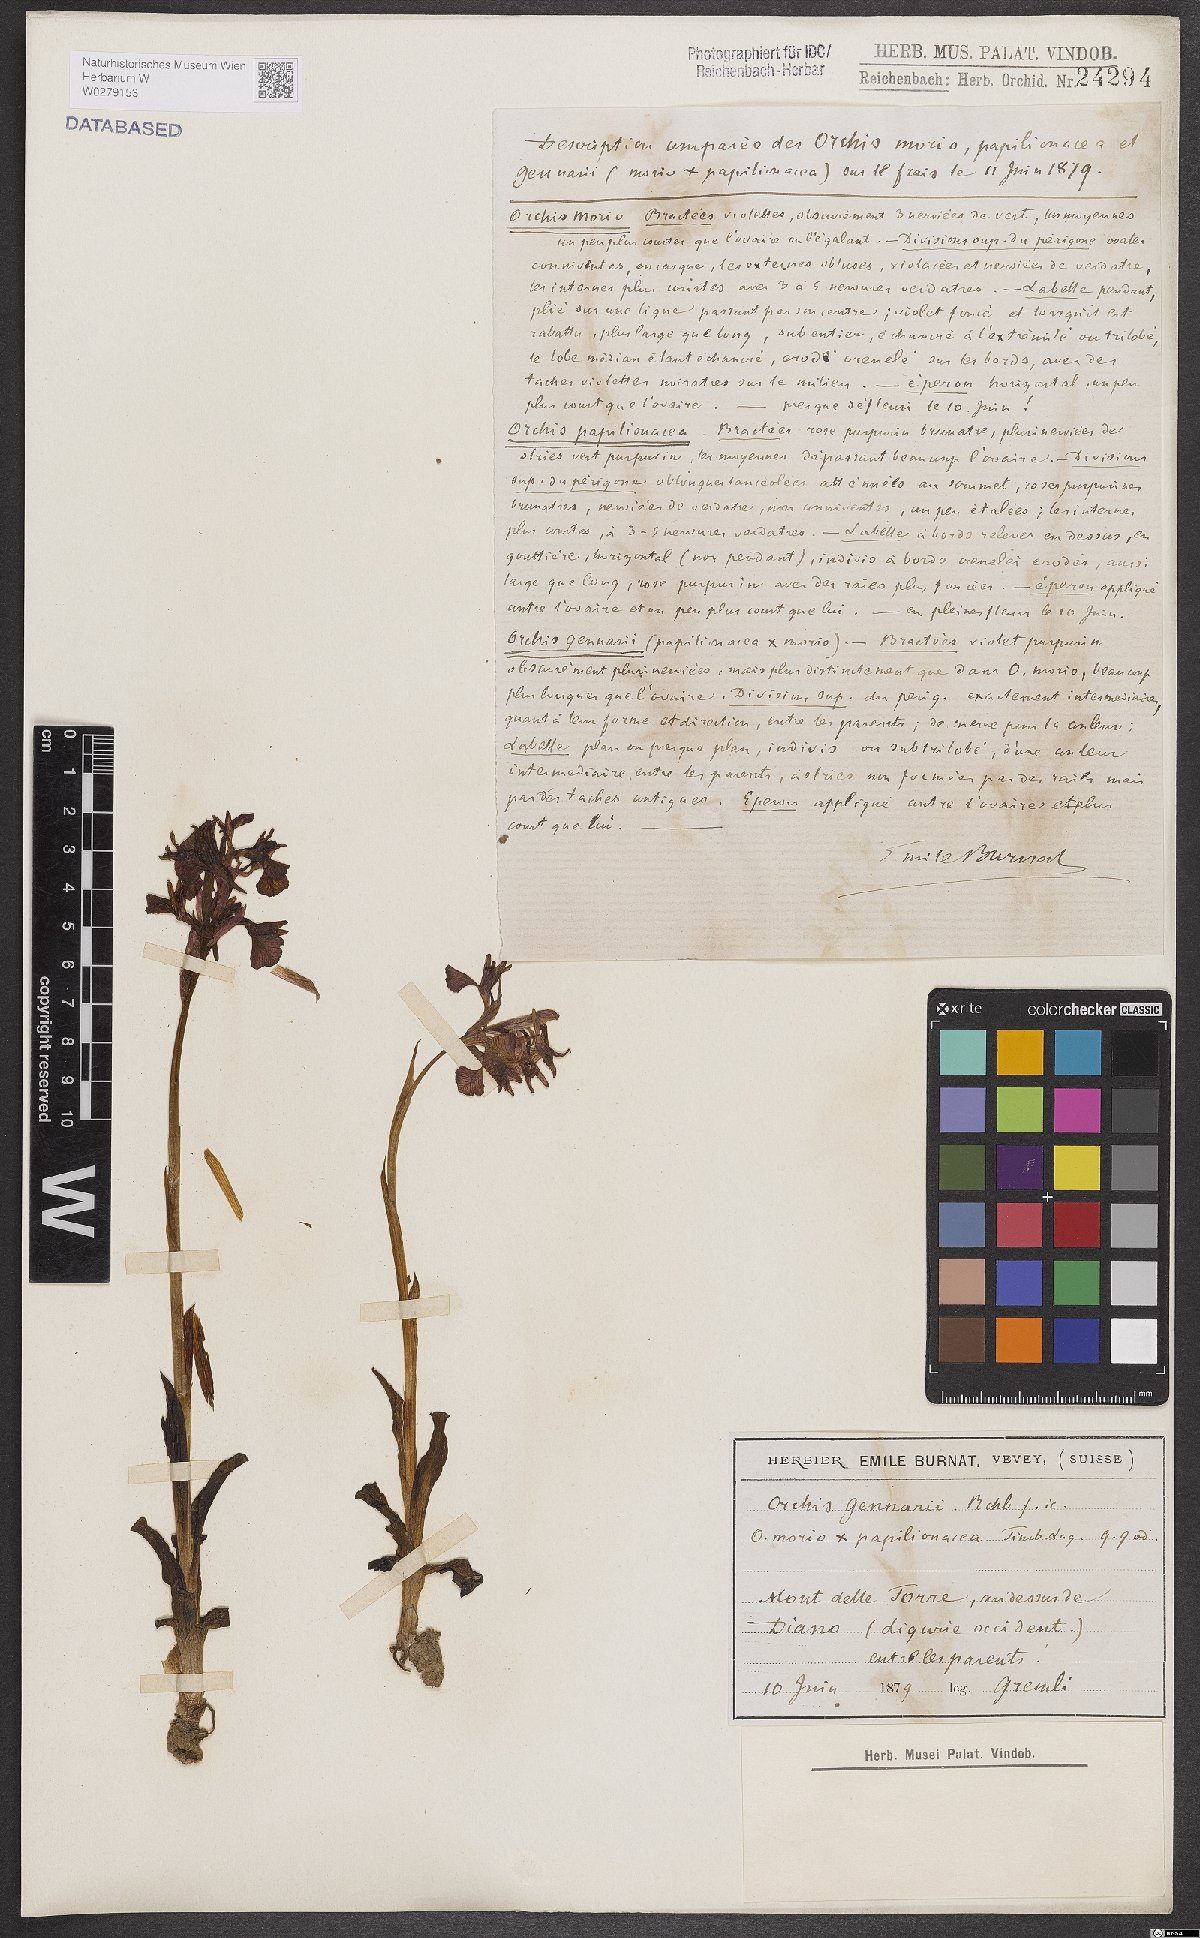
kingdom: Plantae
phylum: Tracheophyta
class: Liliopsida
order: Asparagales
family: Orchidaceae
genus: Anacamptis
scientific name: Anacamptis nicodemi
